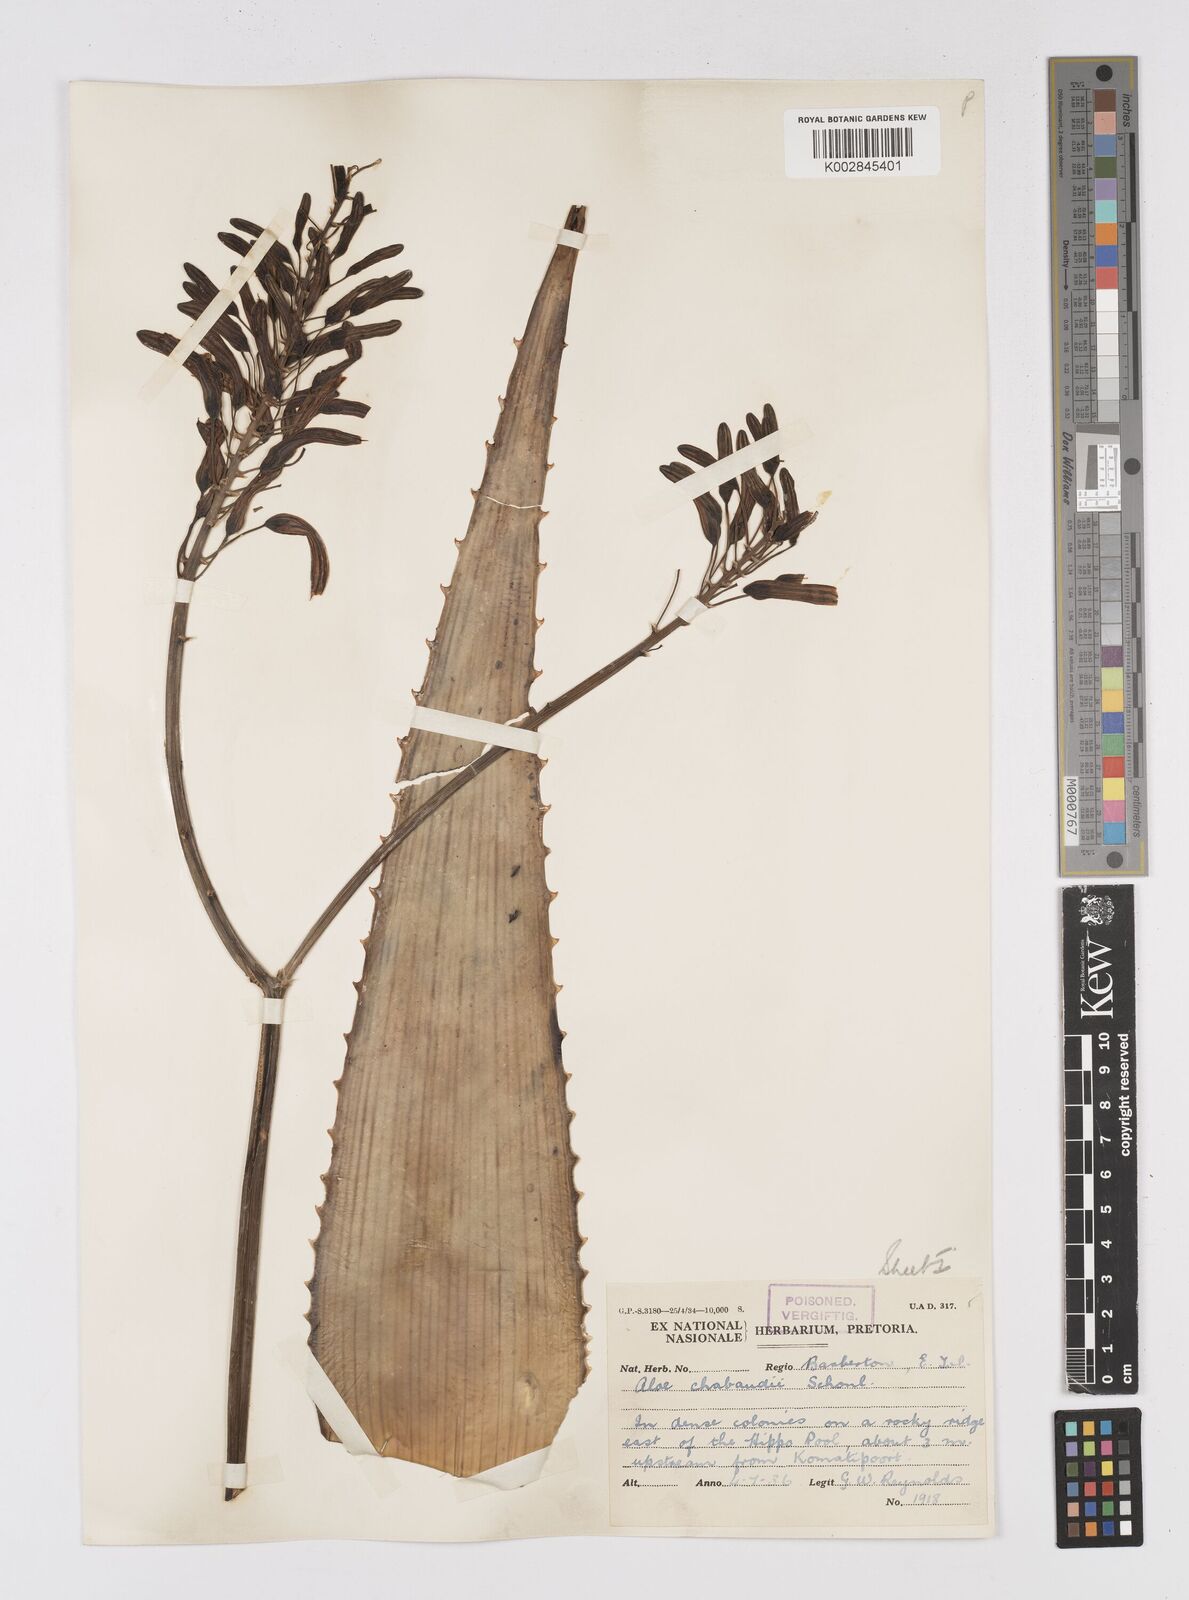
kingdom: Plantae
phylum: Tracheophyta
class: Liliopsida
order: Asparagales
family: Asphodelaceae
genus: Aloe
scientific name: Aloe chabaudii
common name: Chabaud's aloe
